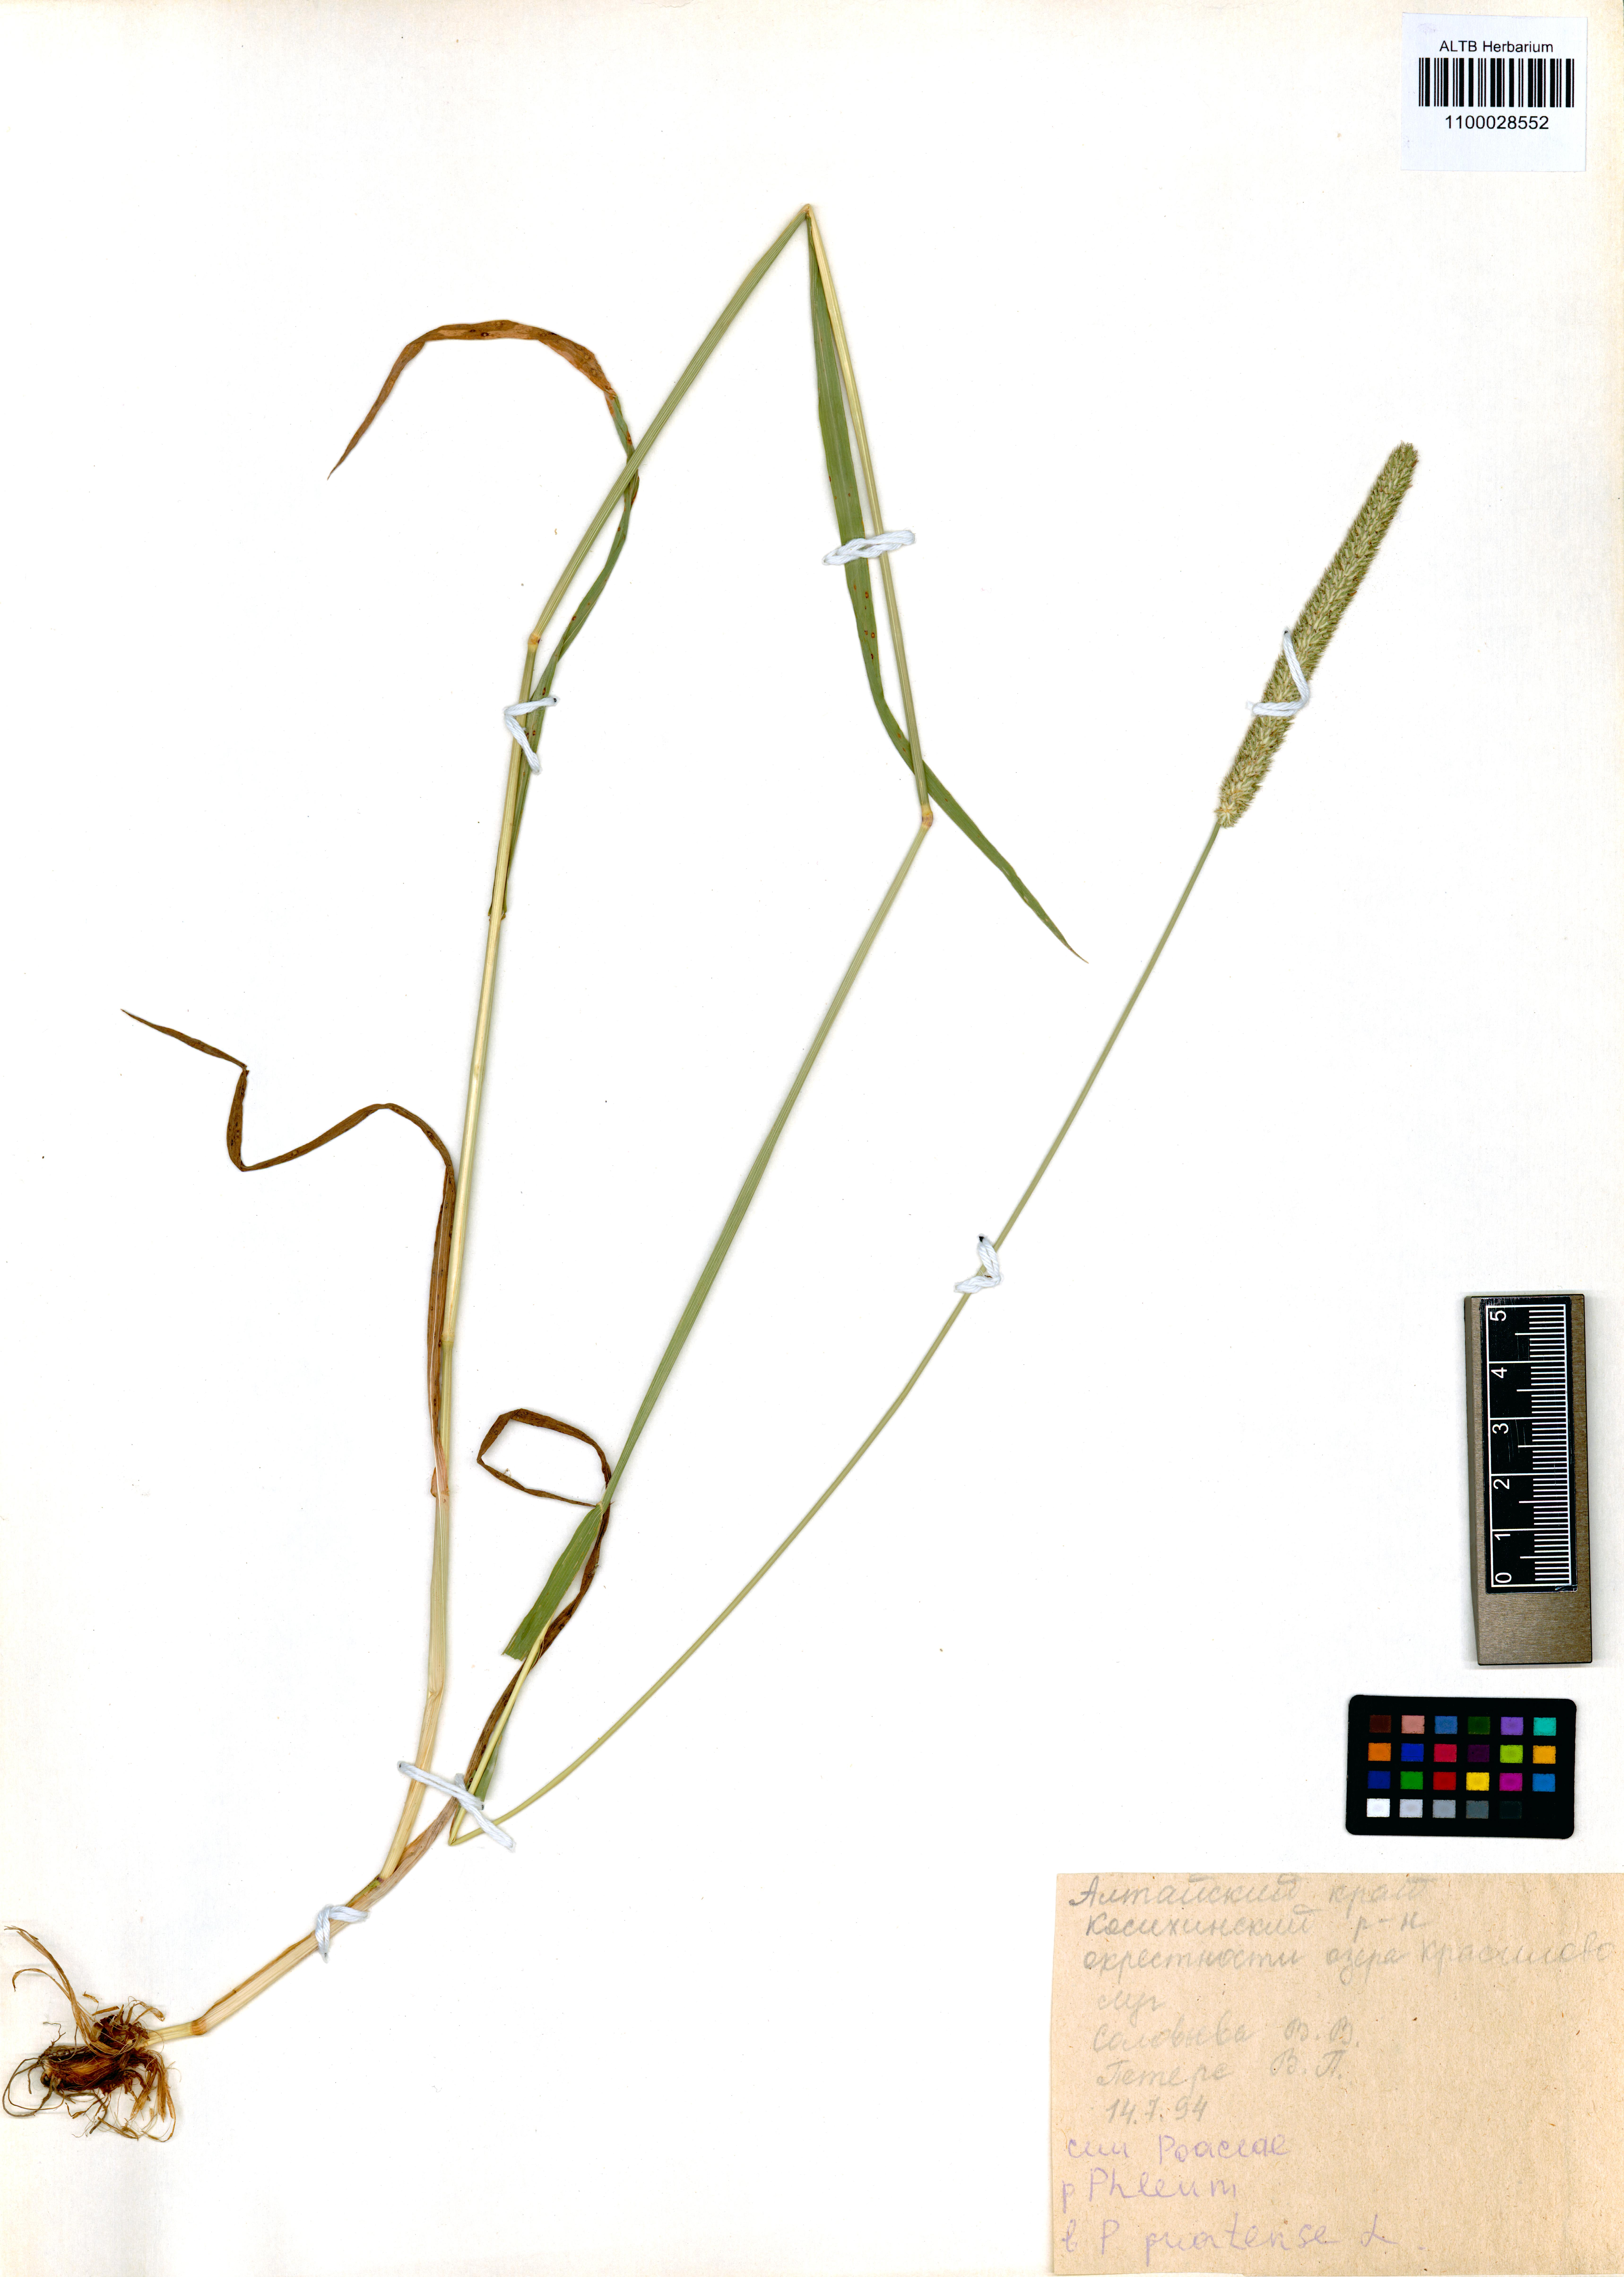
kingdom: Plantae
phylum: Tracheophyta
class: Liliopsida
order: Poales
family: Poaceae
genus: Phleum
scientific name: Phleum pratense
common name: Timothy grass
